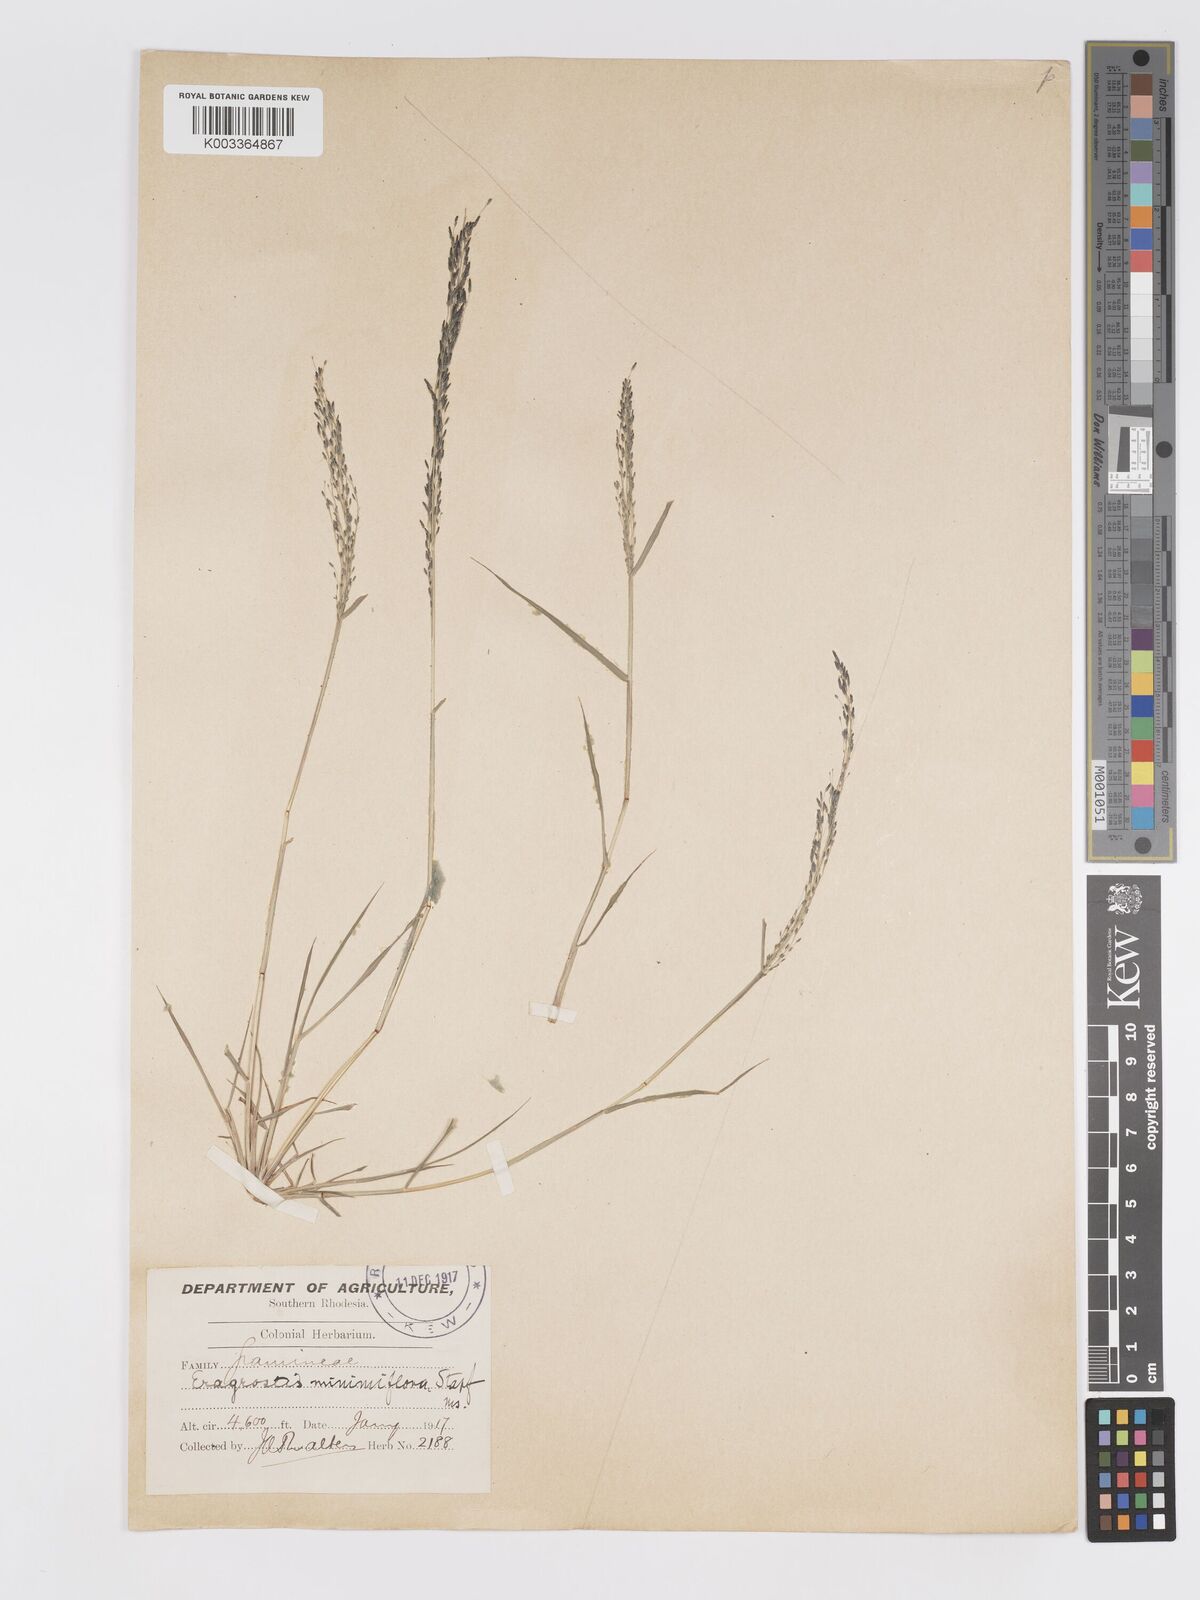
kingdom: Plantae
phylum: Tracheophyta
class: Liliopsida
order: Poales
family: Poaceae
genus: Eragrostis
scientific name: Eragrostis aethiopica
